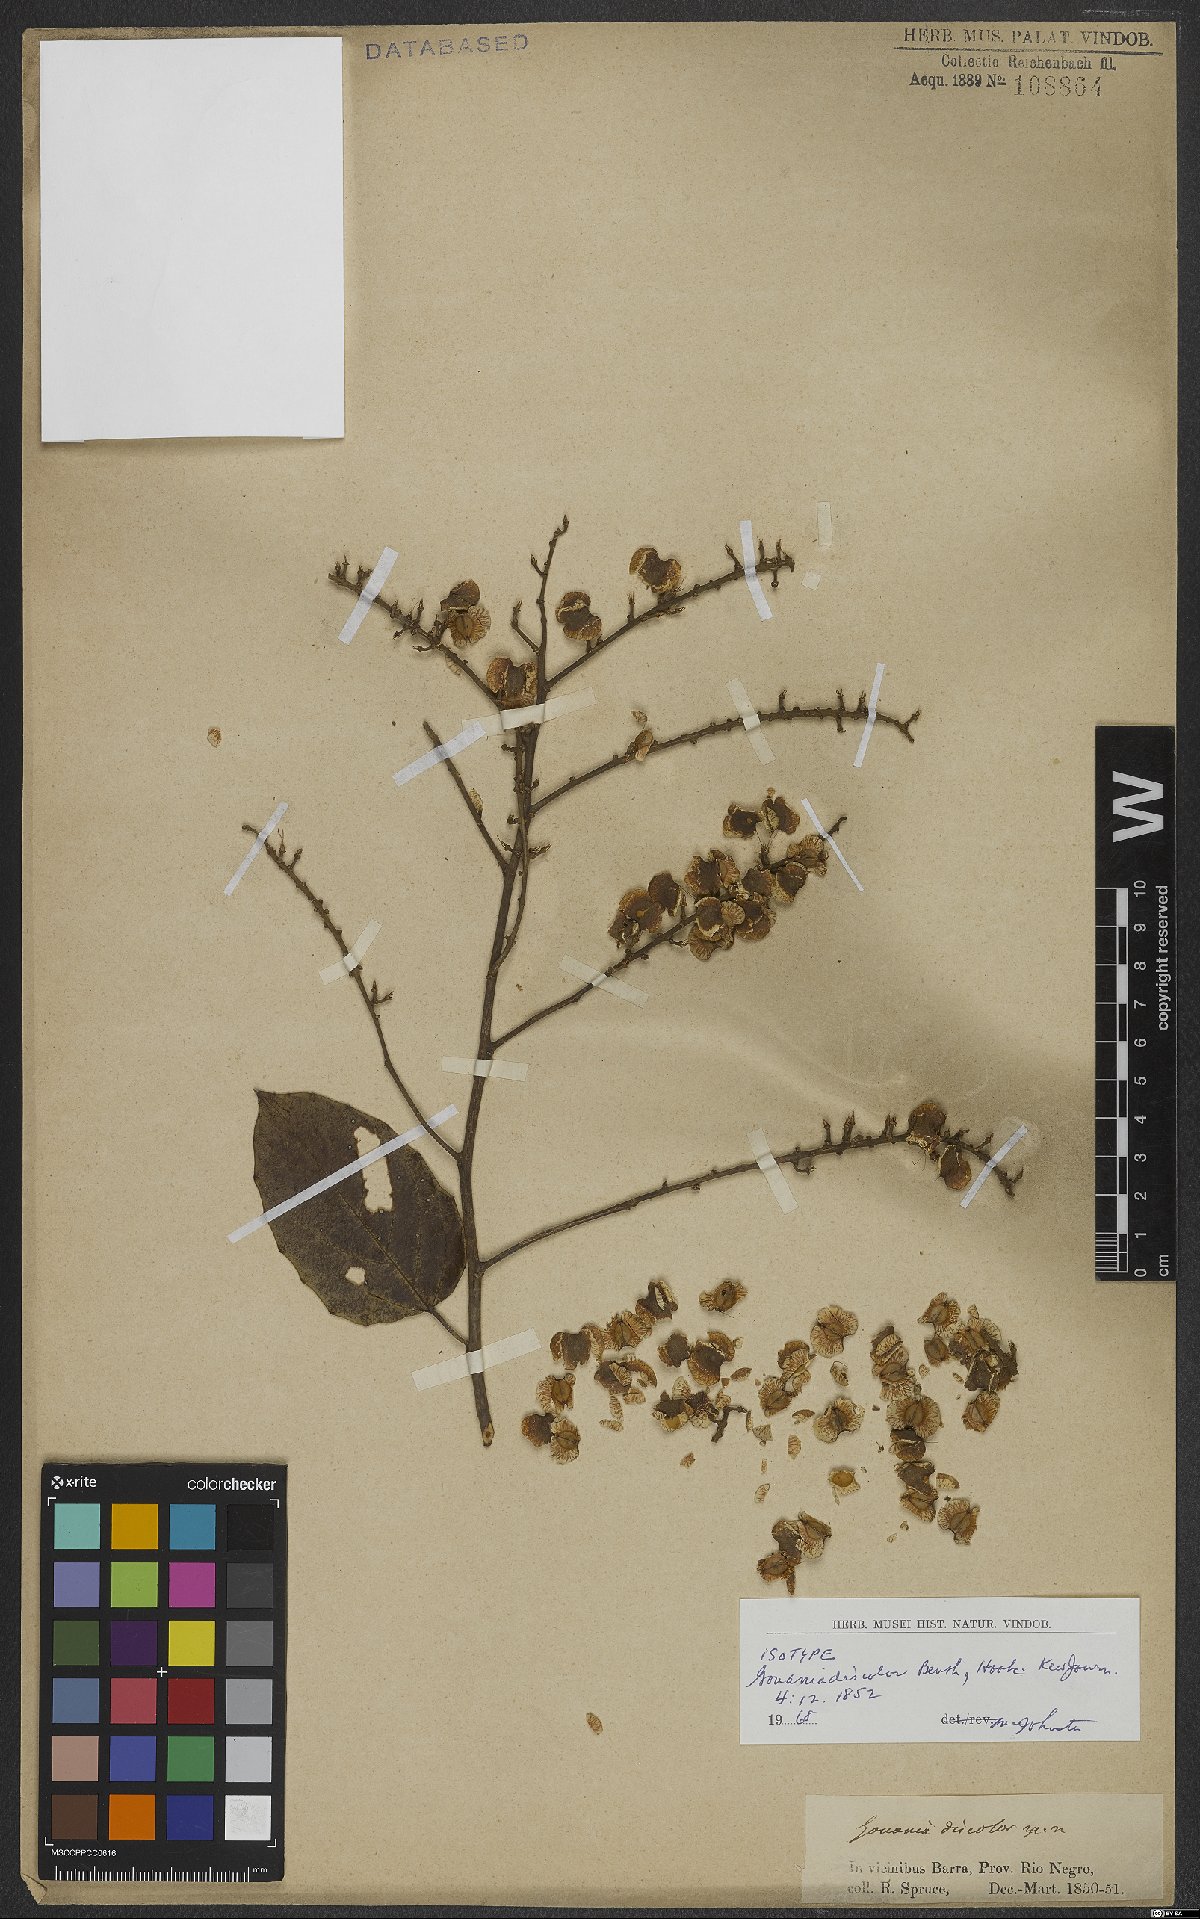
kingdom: Plantae
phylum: Tracheophyta
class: Magnoliopsida
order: Rosales
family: Rhamnaceae
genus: Gouania
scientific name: Gouania discolor
